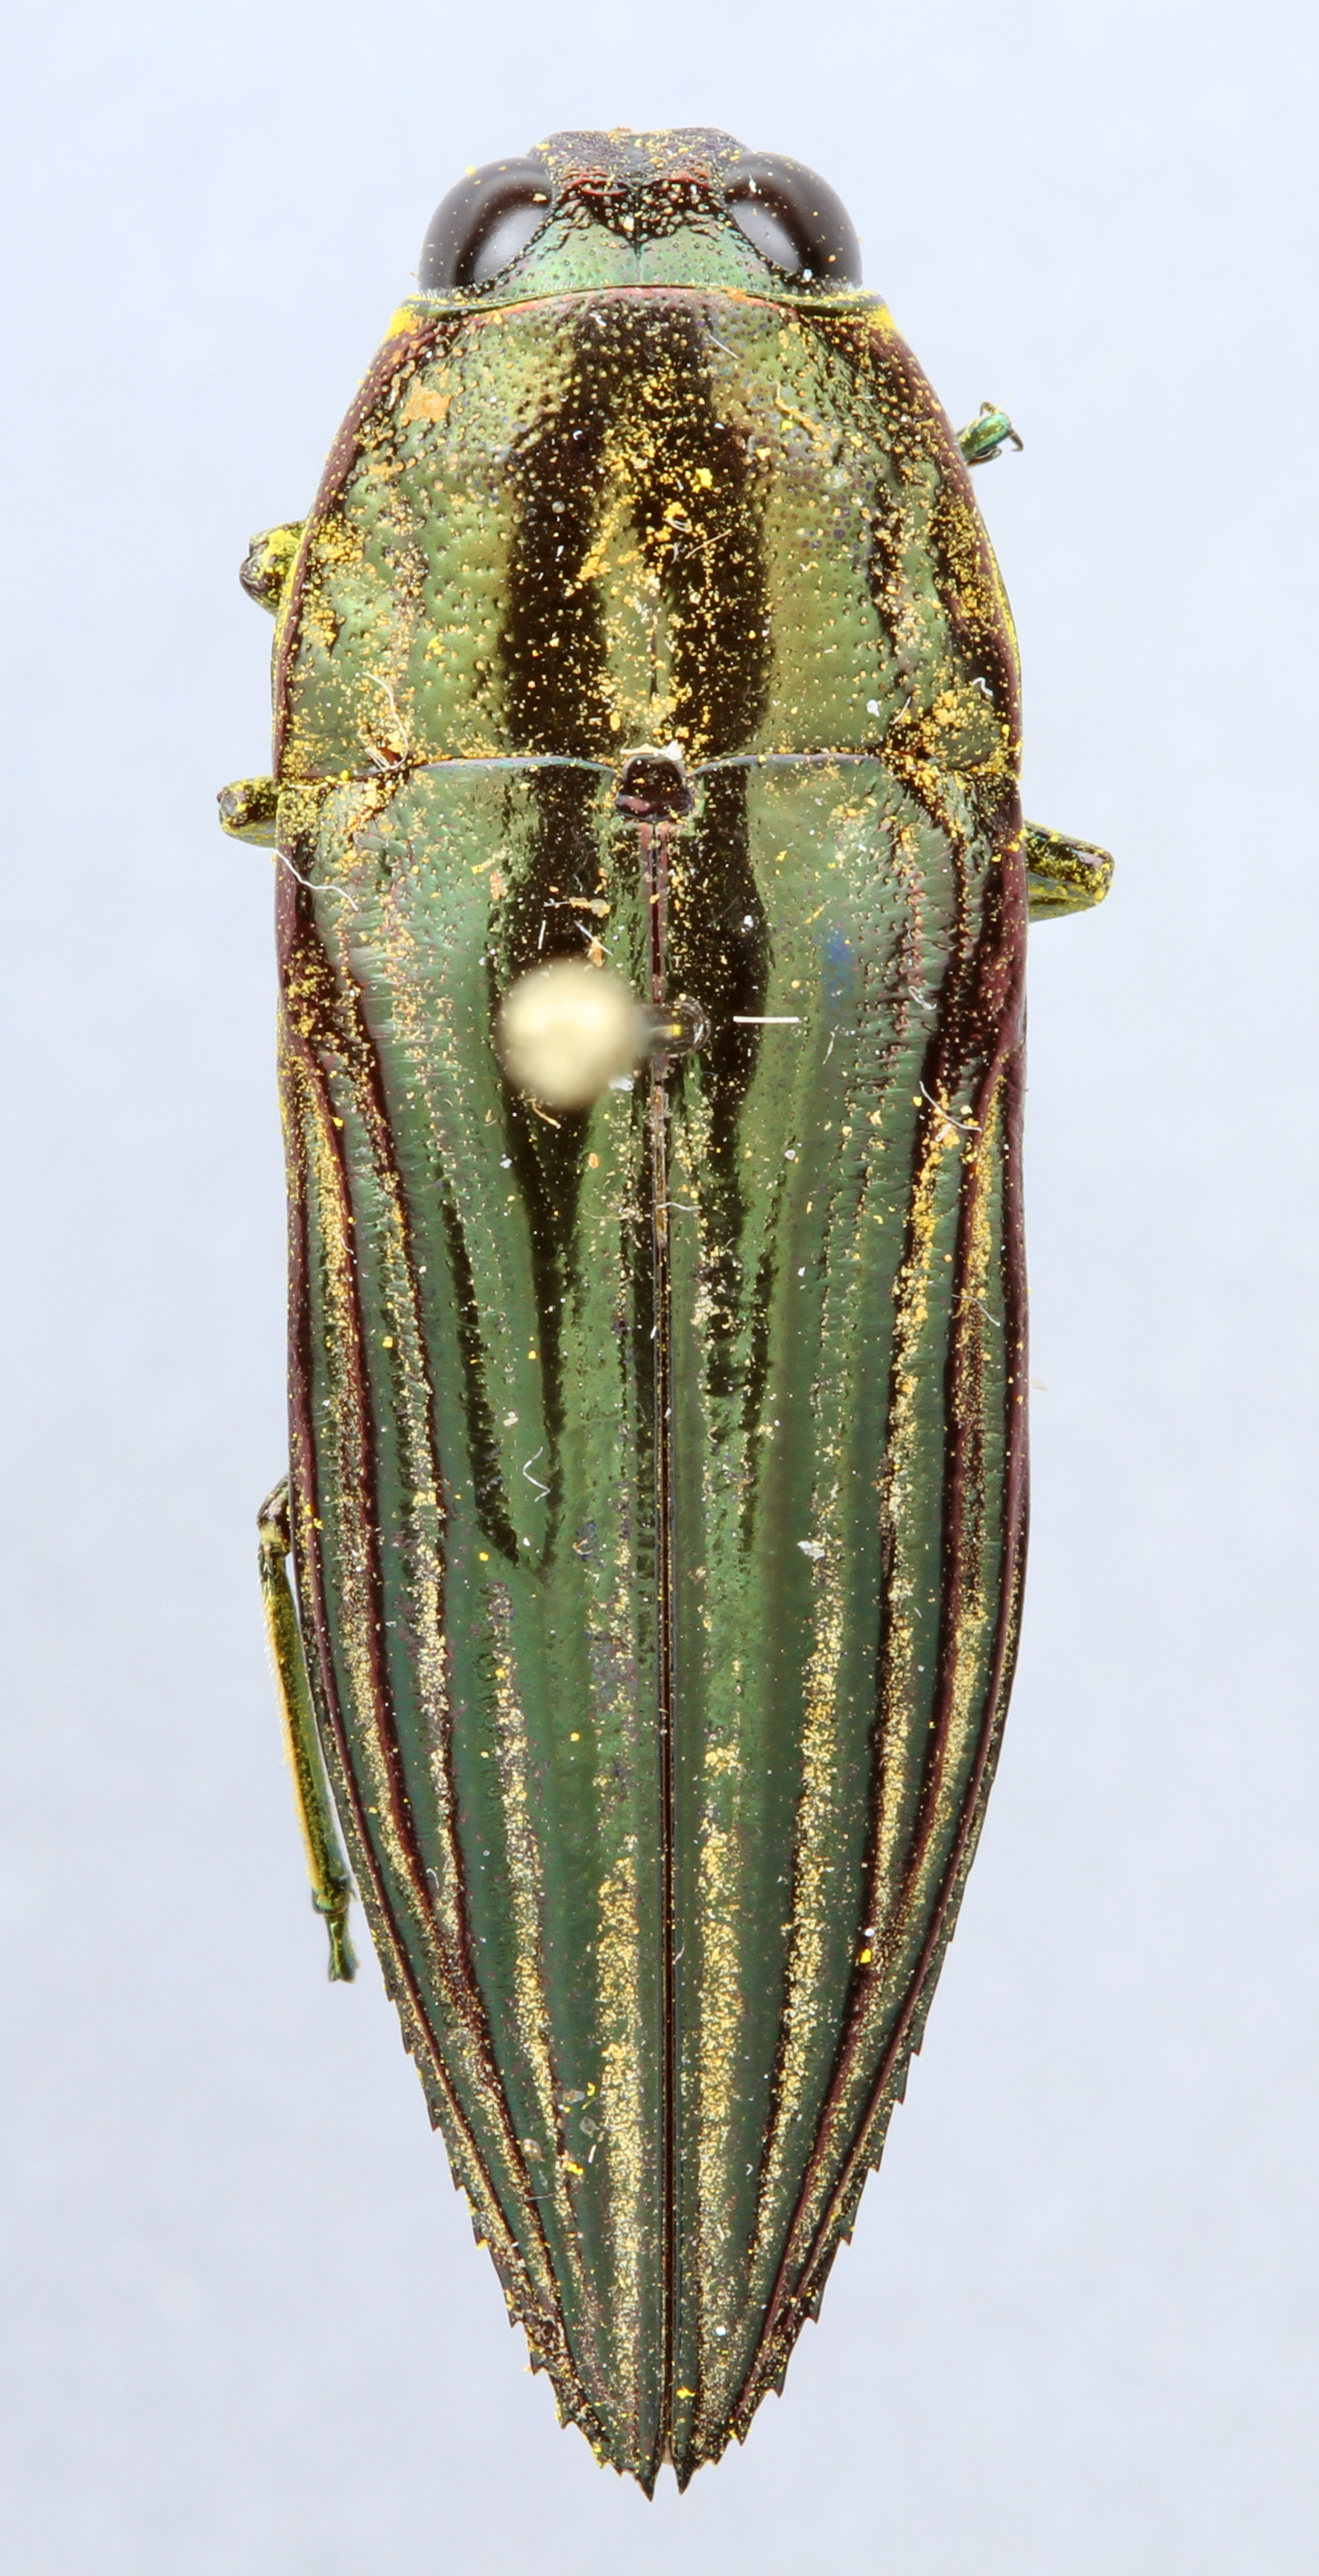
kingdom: Animalia
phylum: Arthropoda
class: Insecta
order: Coleoptera
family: Buprestidae
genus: Pelecopselaphus
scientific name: Pelecopselaphus
